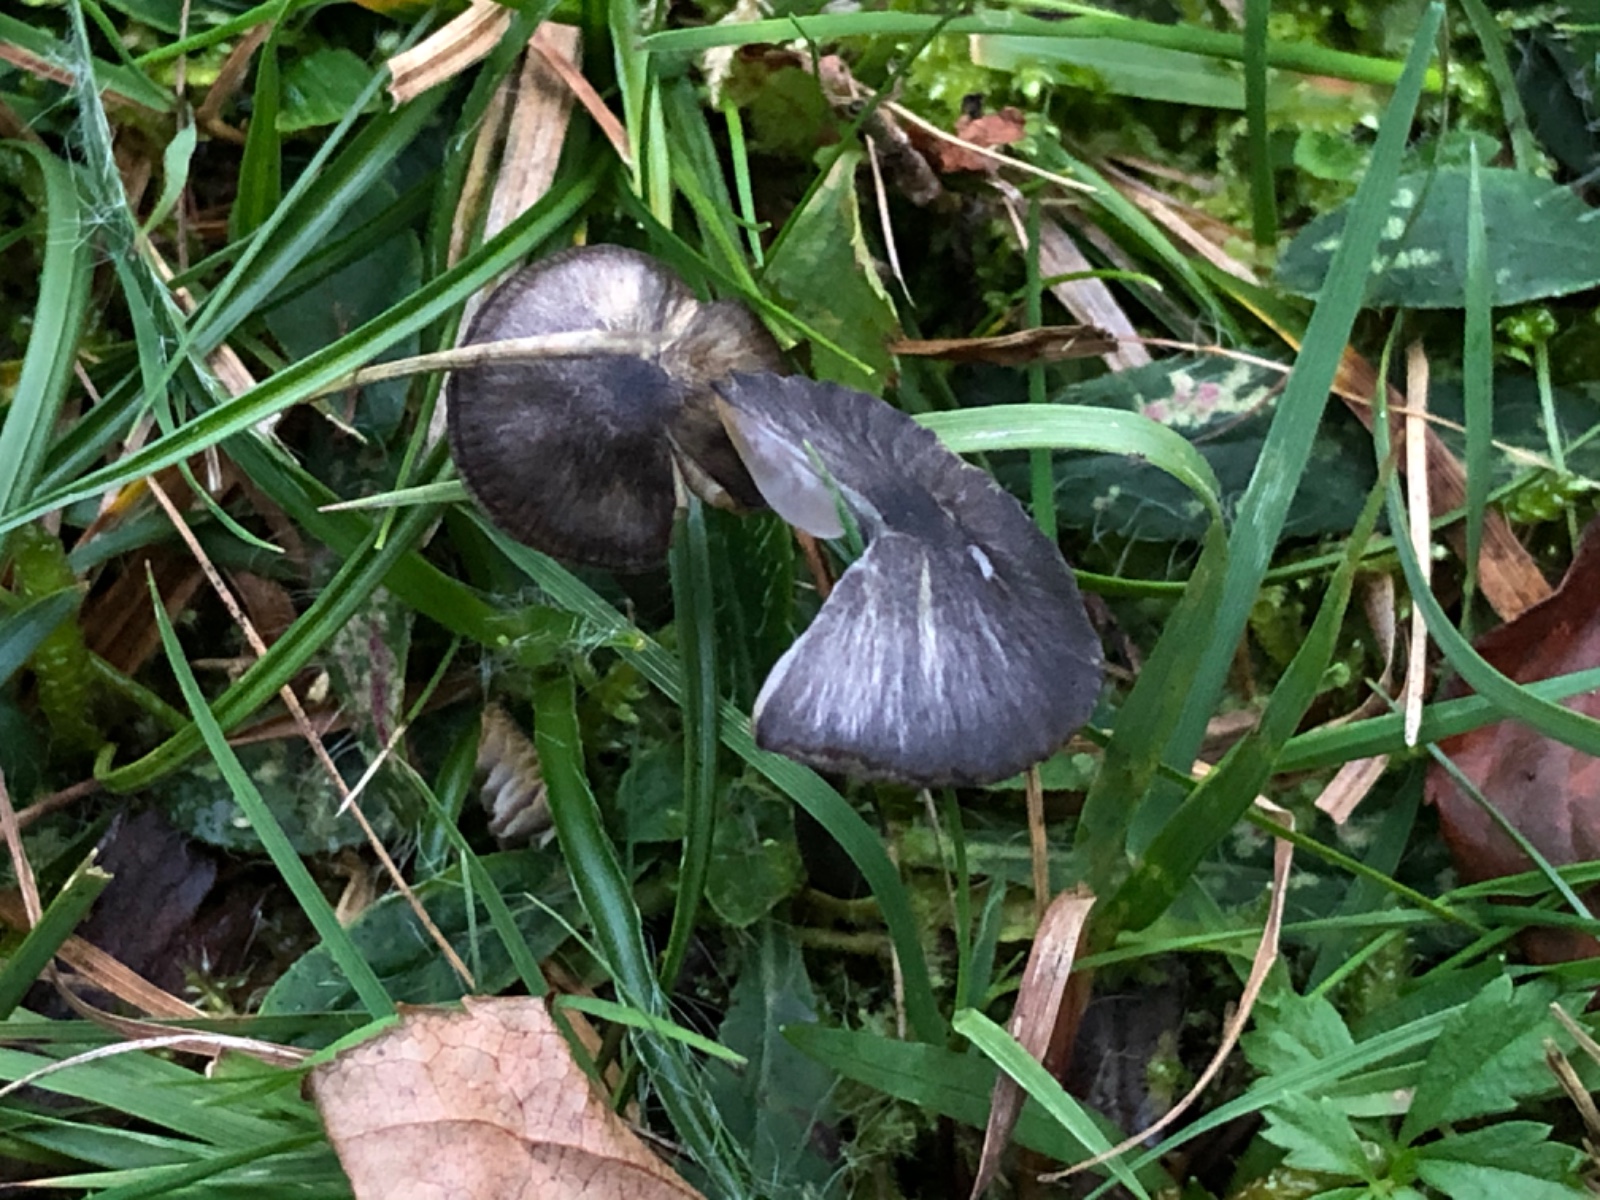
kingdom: Fungi
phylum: Basidiomycota
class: Agaricomycetes
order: Agaricales
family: Entolomataceae
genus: Entoloma
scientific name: Entoloma cyaneolilacinum
